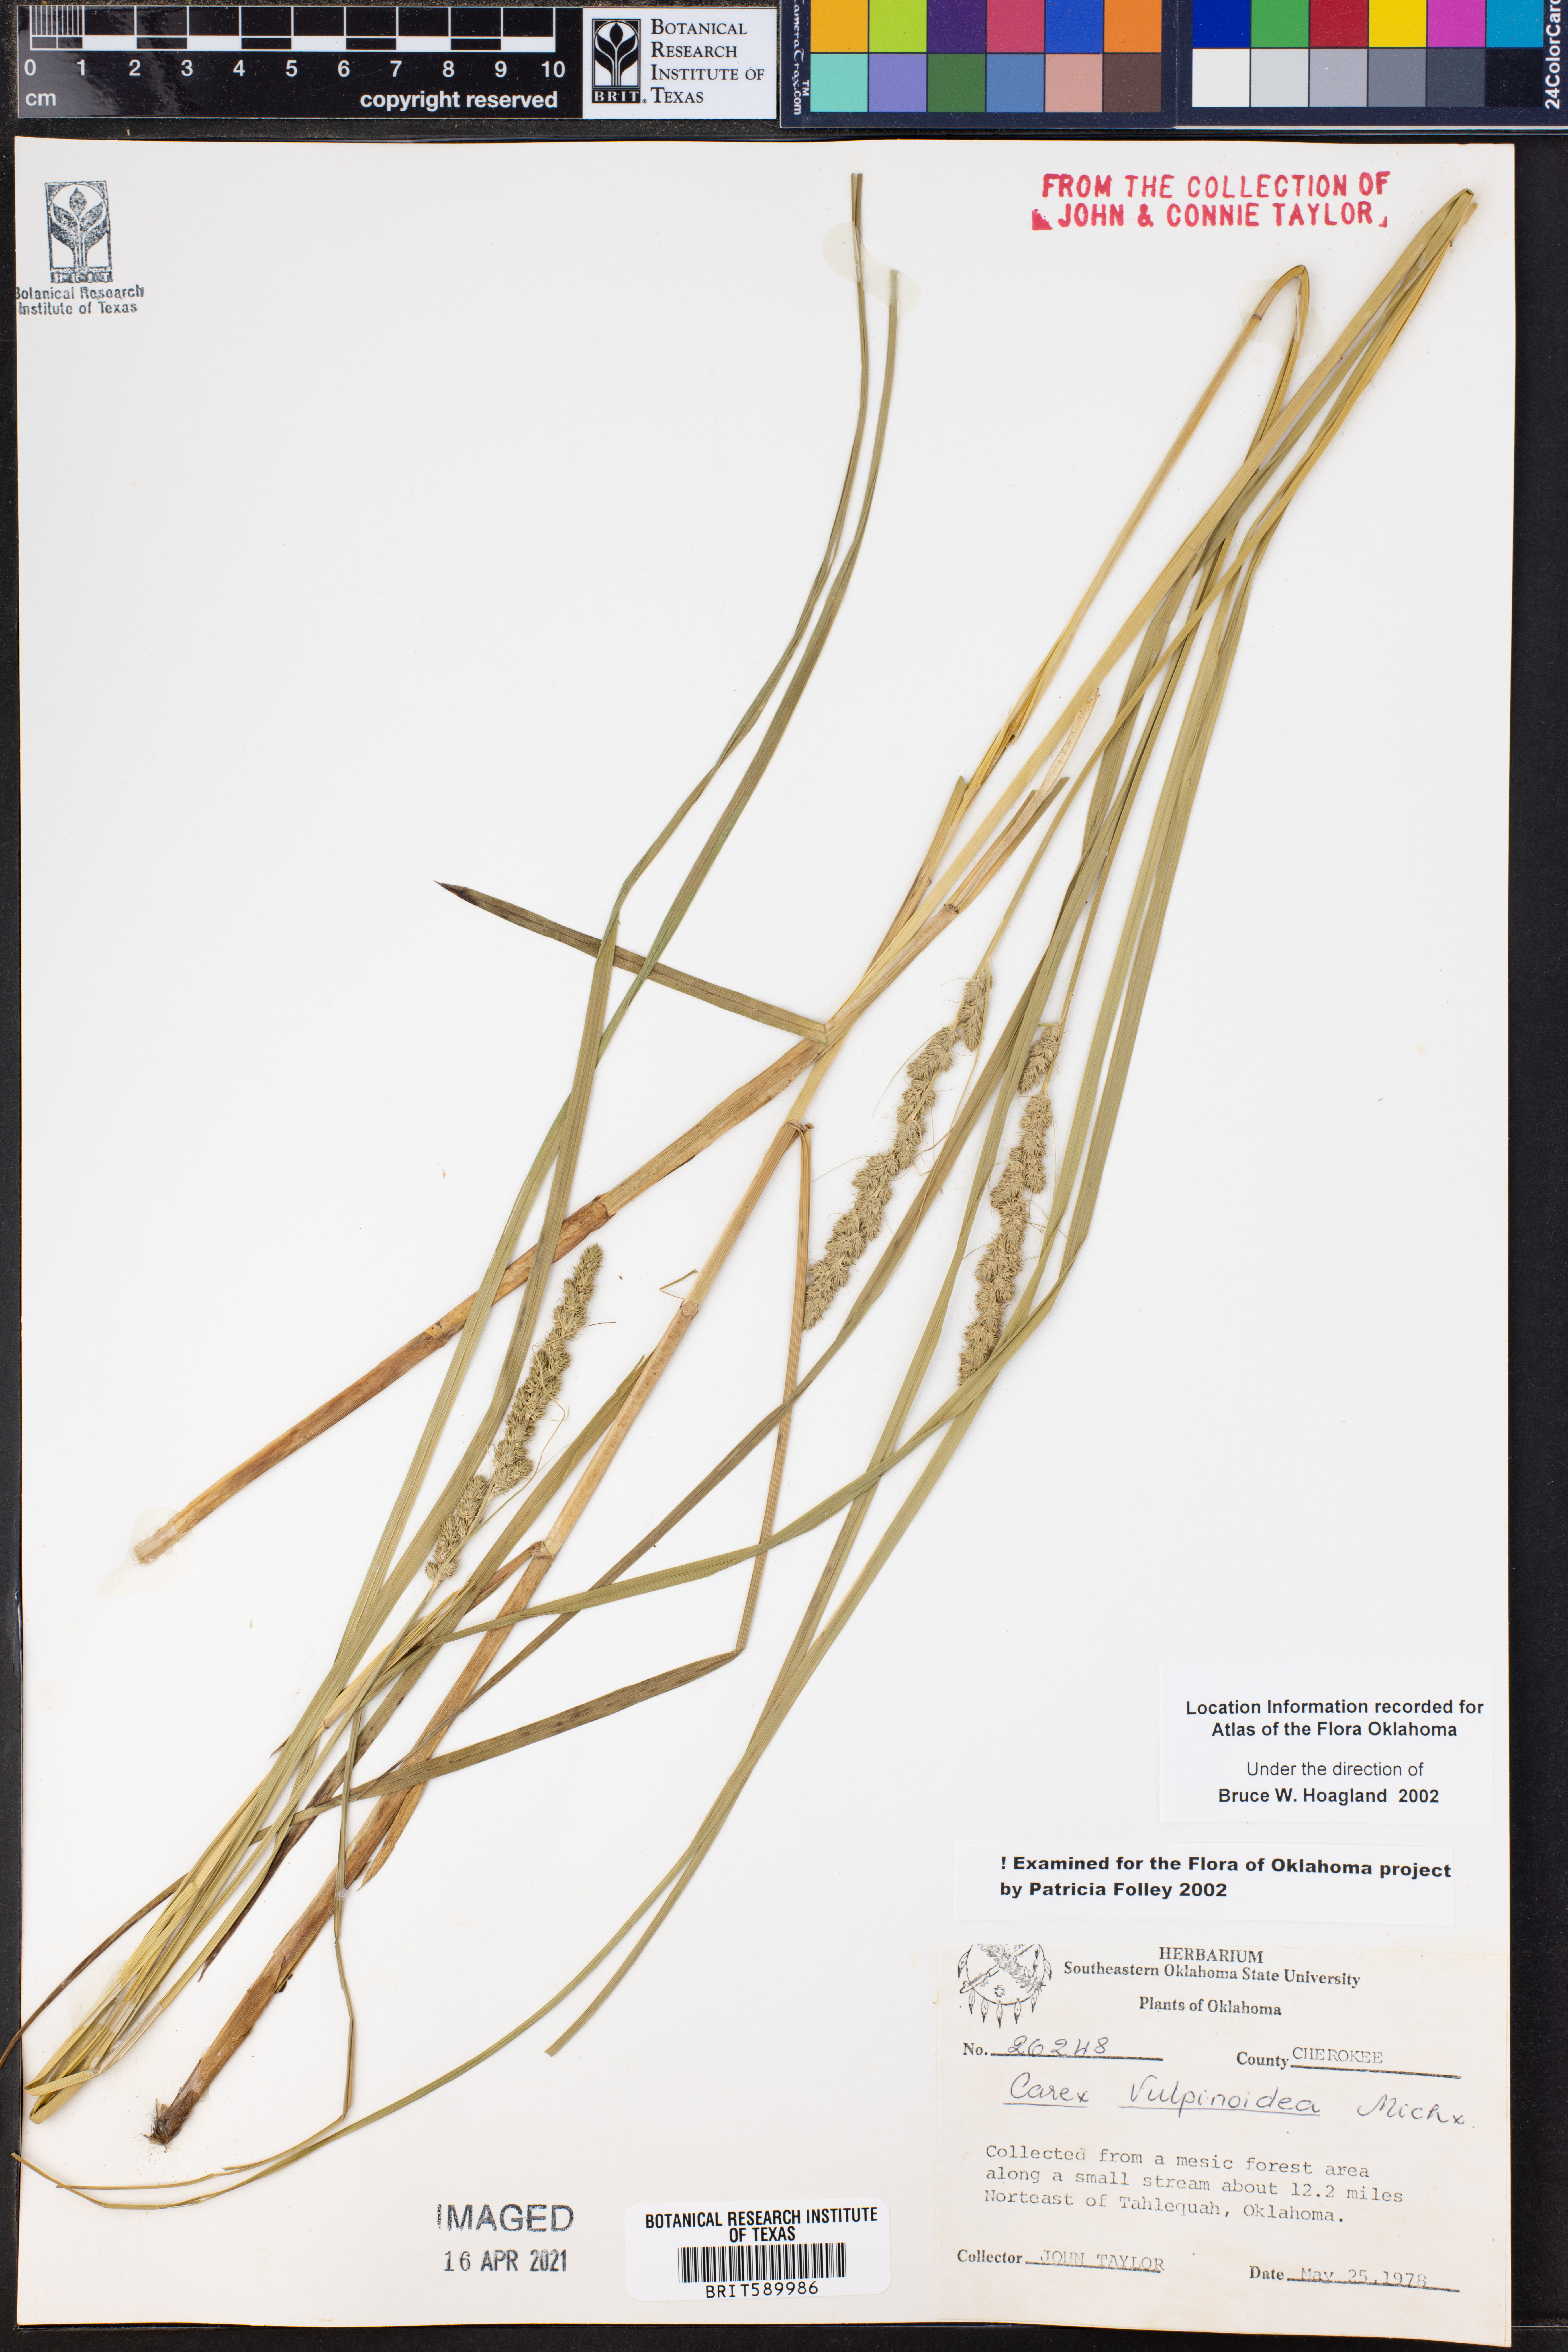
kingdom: Plantae
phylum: Tracheophyta
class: Liliopsida
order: Poales
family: Cyperaceae
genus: Carex
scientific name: Carex vulpinoidea
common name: American fox-sedge
